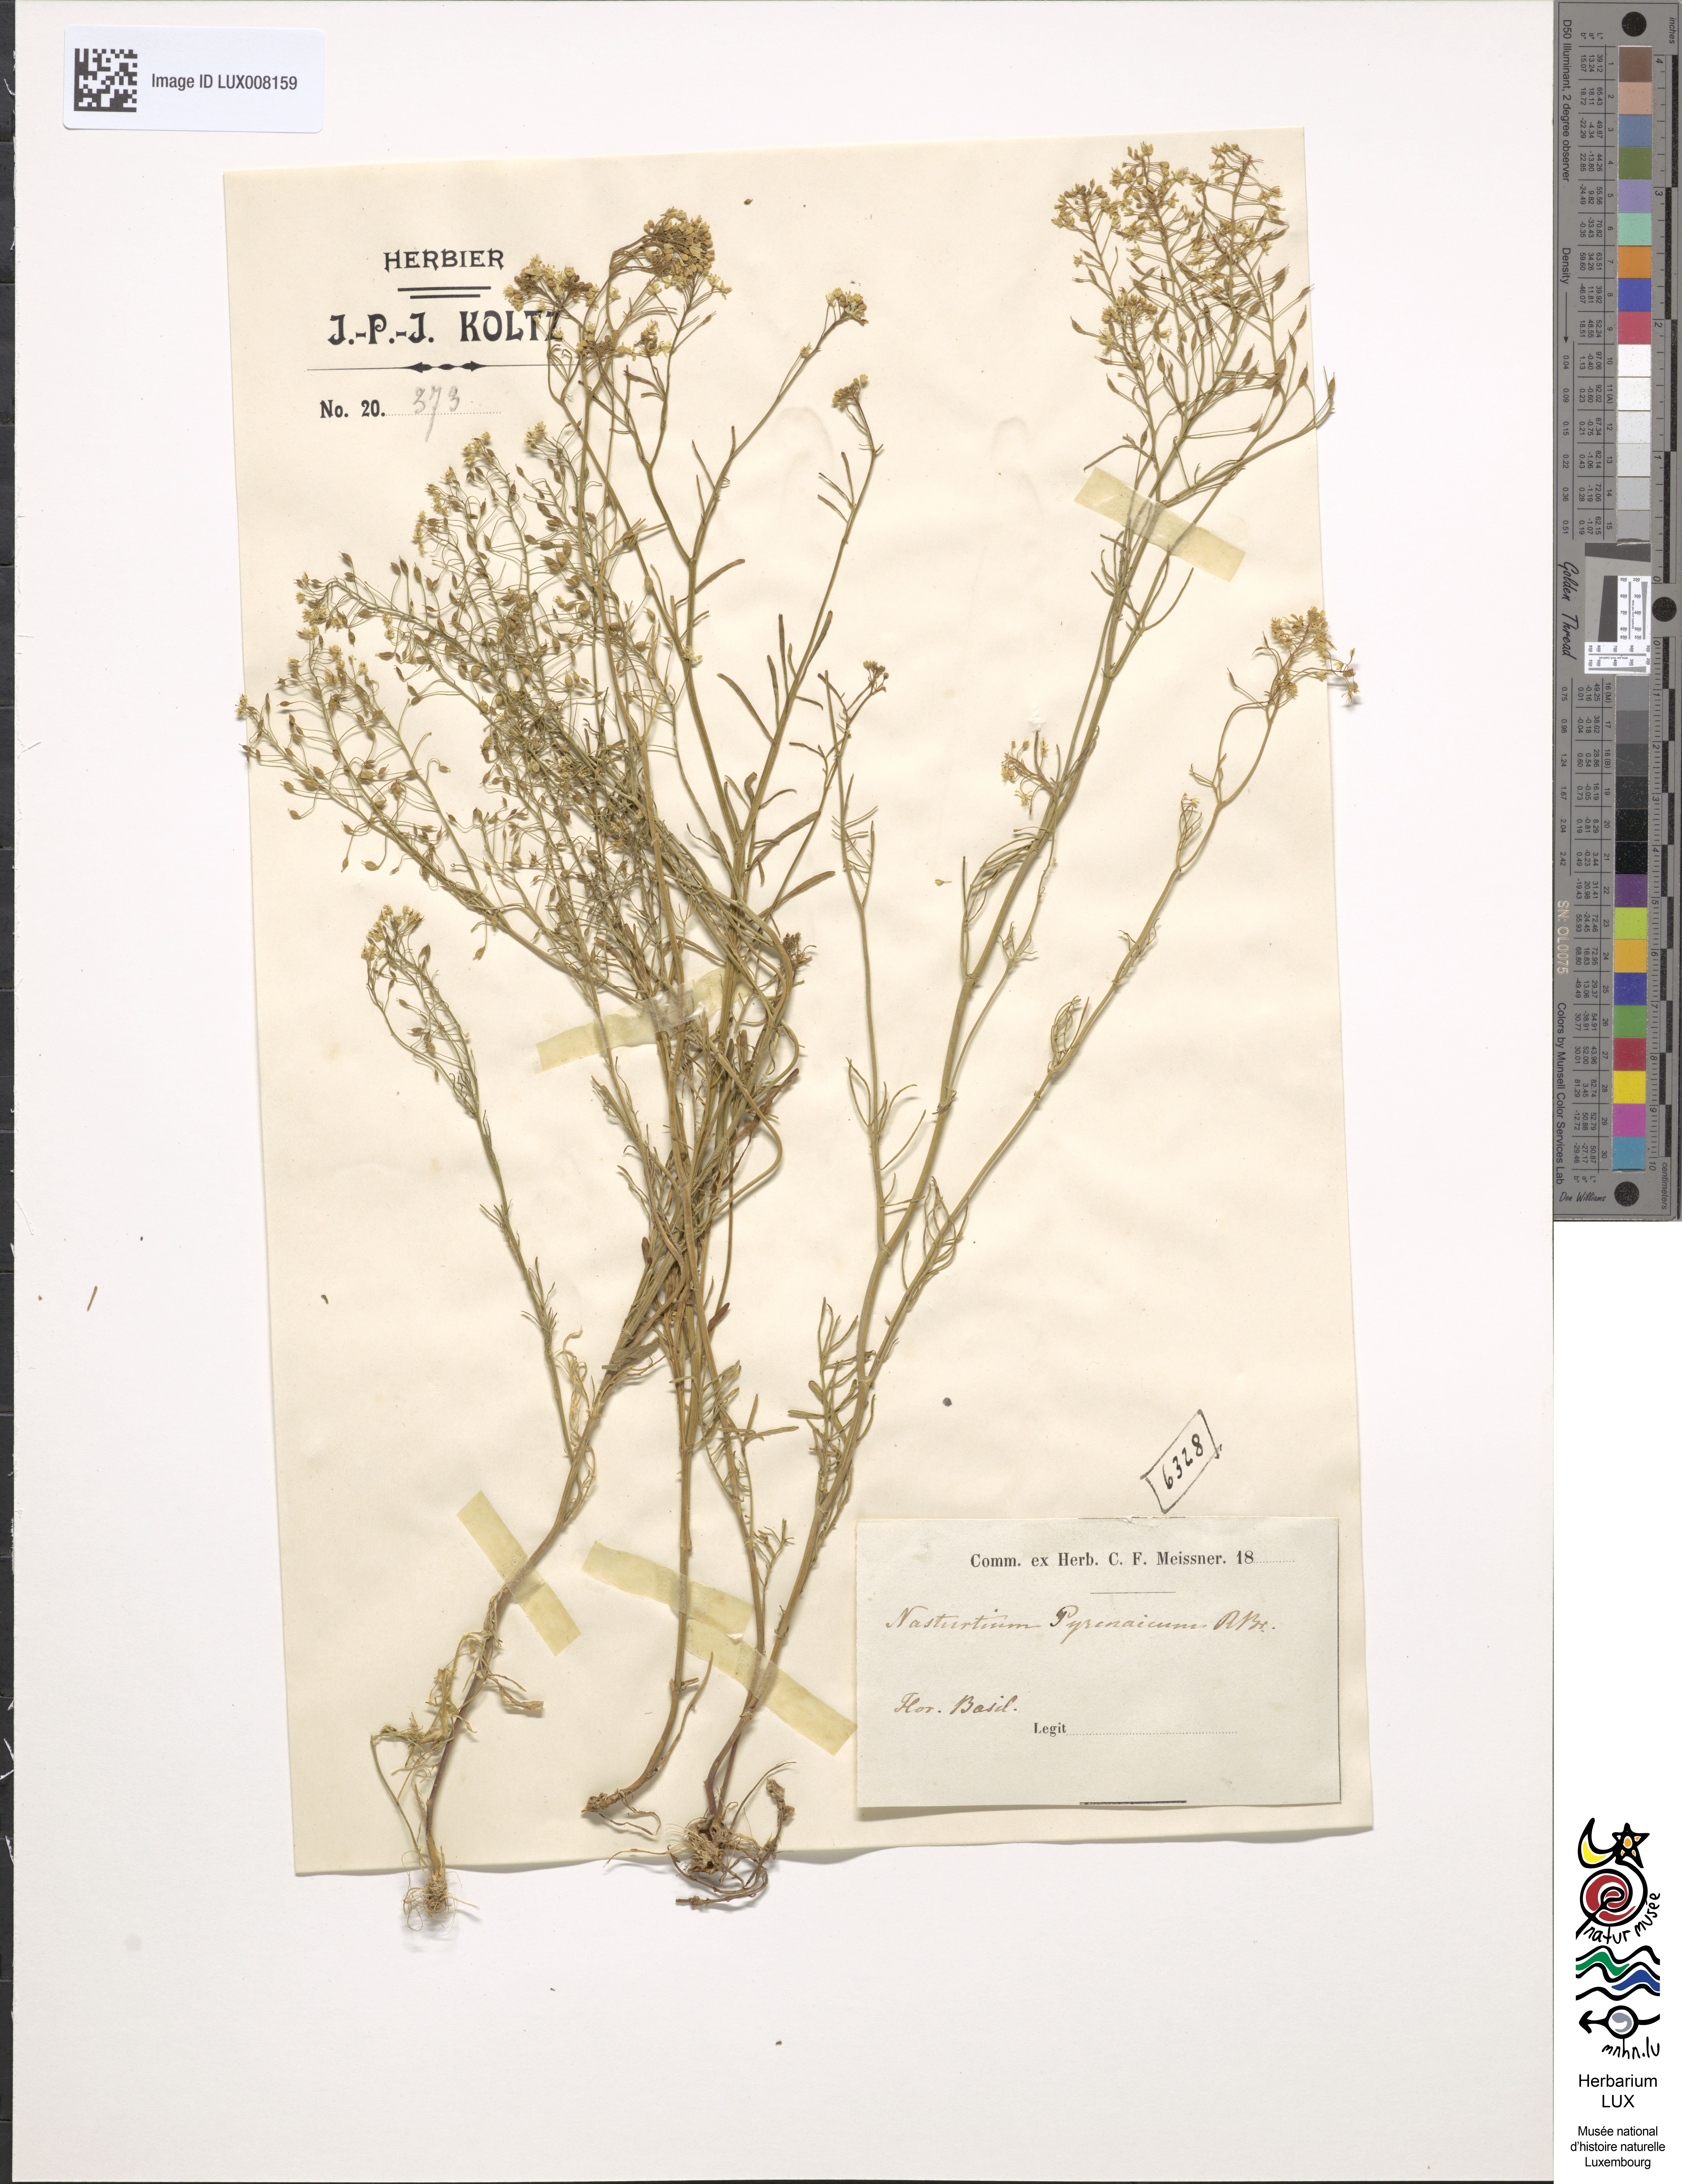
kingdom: Plantae
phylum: Tracheophyta
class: Magnoliopsida
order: Brassicales
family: Brassicaceae
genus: Rorippa
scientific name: Rorippa pyrenaica
